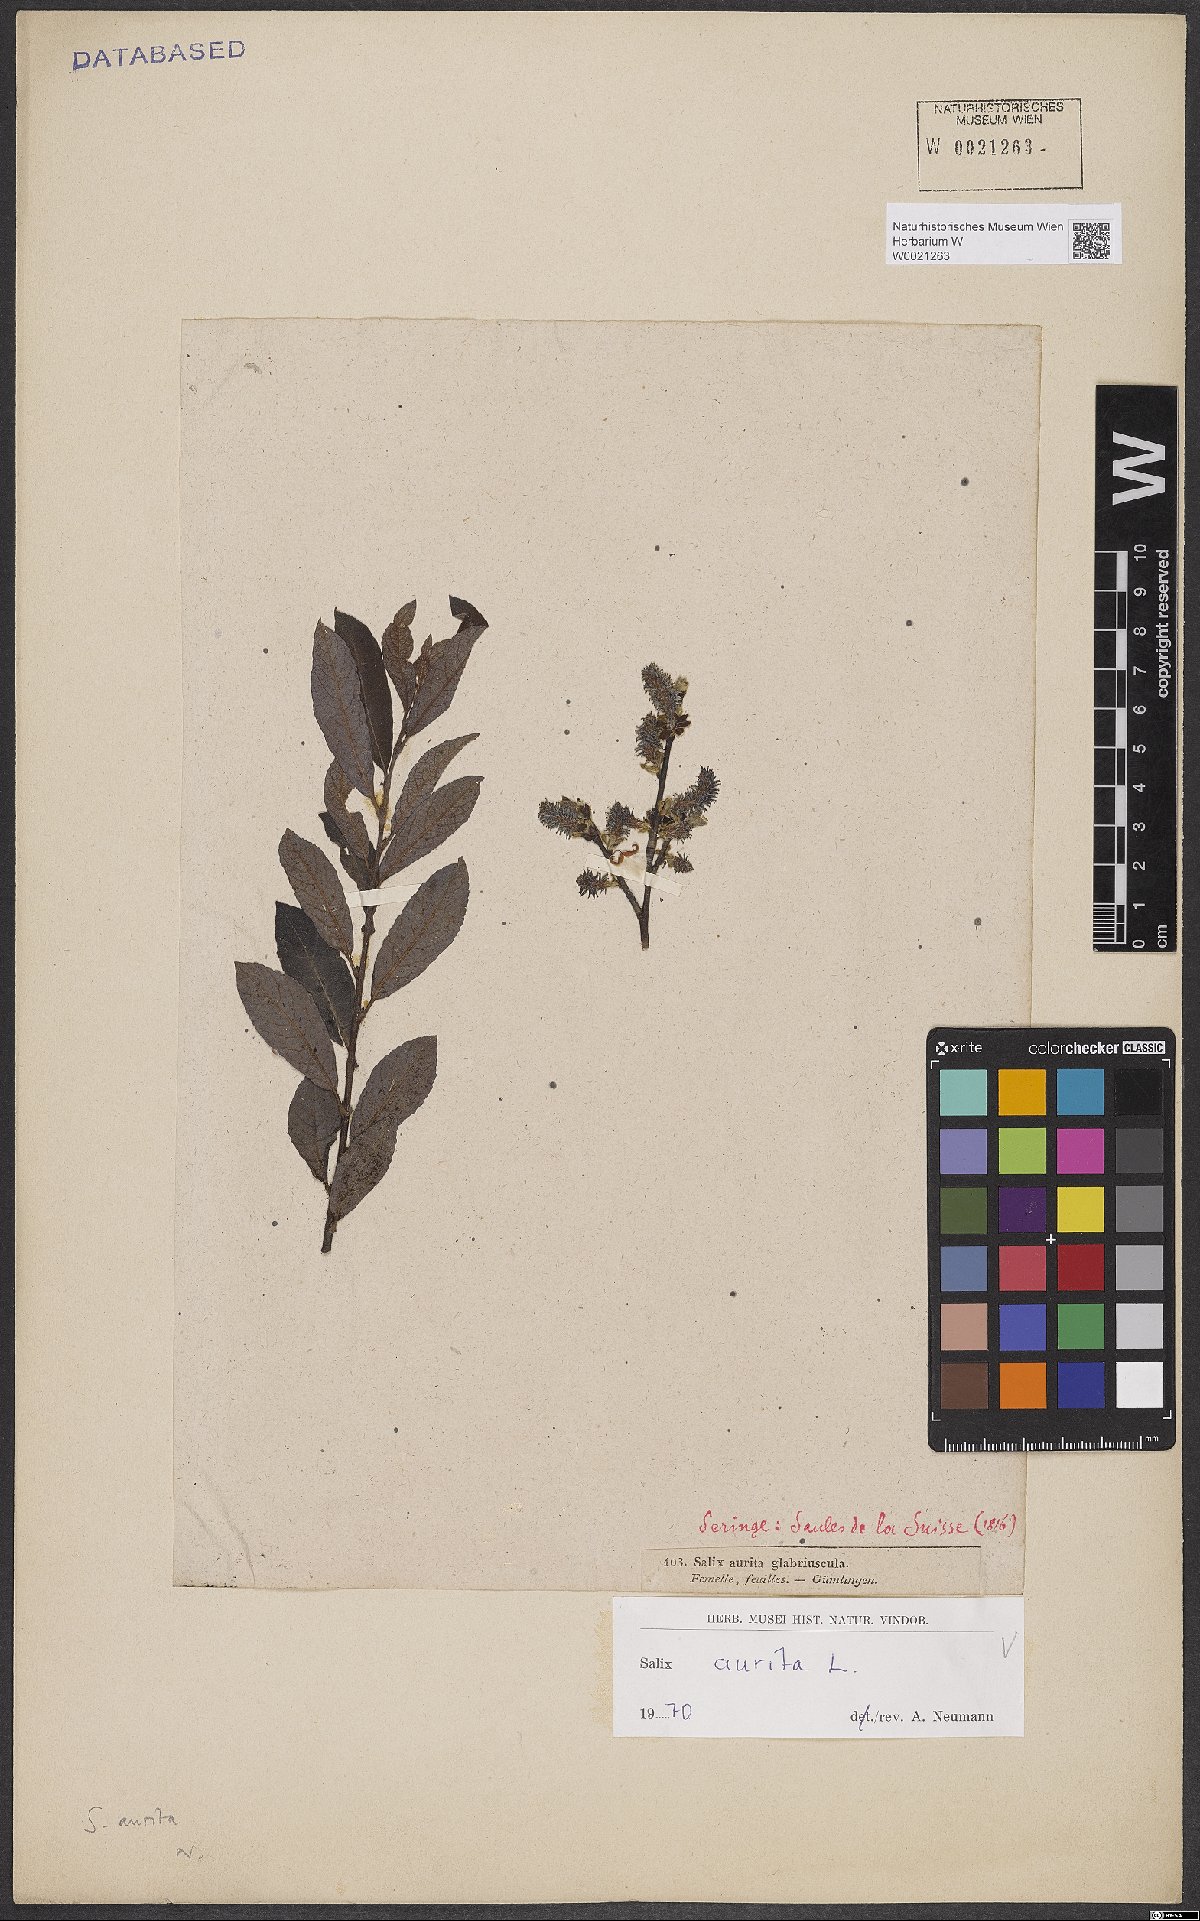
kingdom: Plantae
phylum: Tracheophyta
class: Magnoliopsida
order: Malpighiales
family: Salicaceae
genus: Salix
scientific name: Salix aurita
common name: Eared willow
